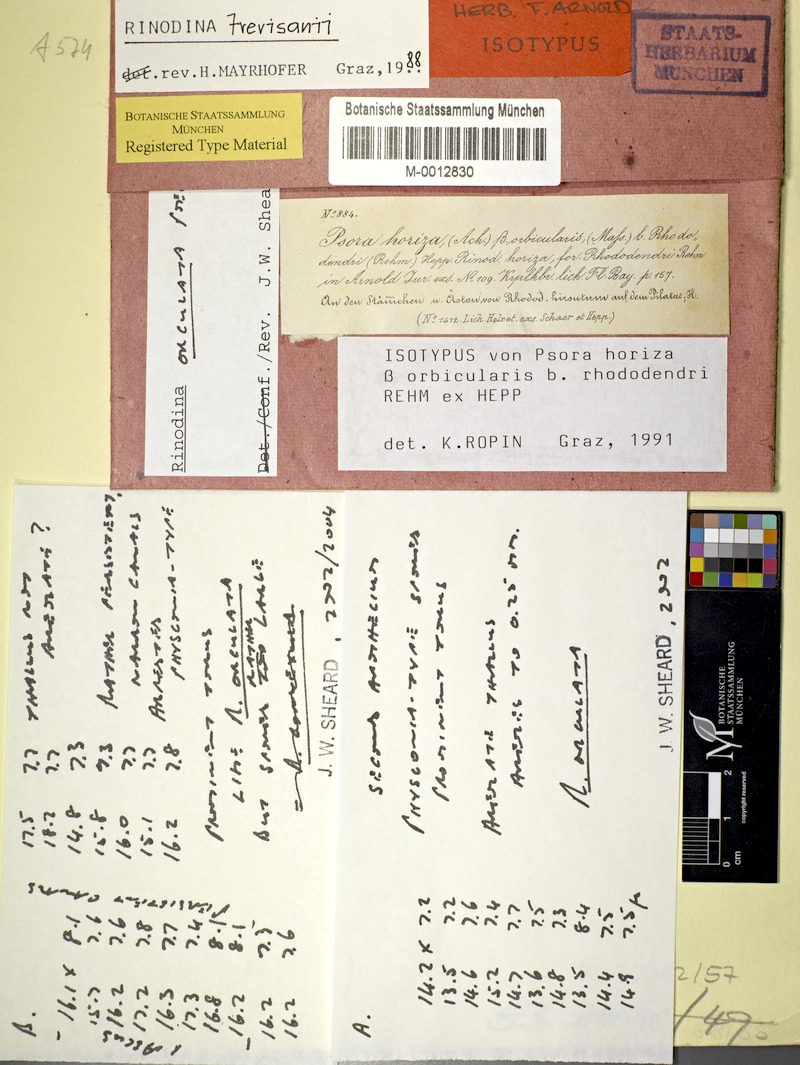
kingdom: Fungi
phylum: Ascomycota
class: Lecanoromycetes
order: Caliciales
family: Physciaceae
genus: Rinodina
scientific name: Rinodina orculata
